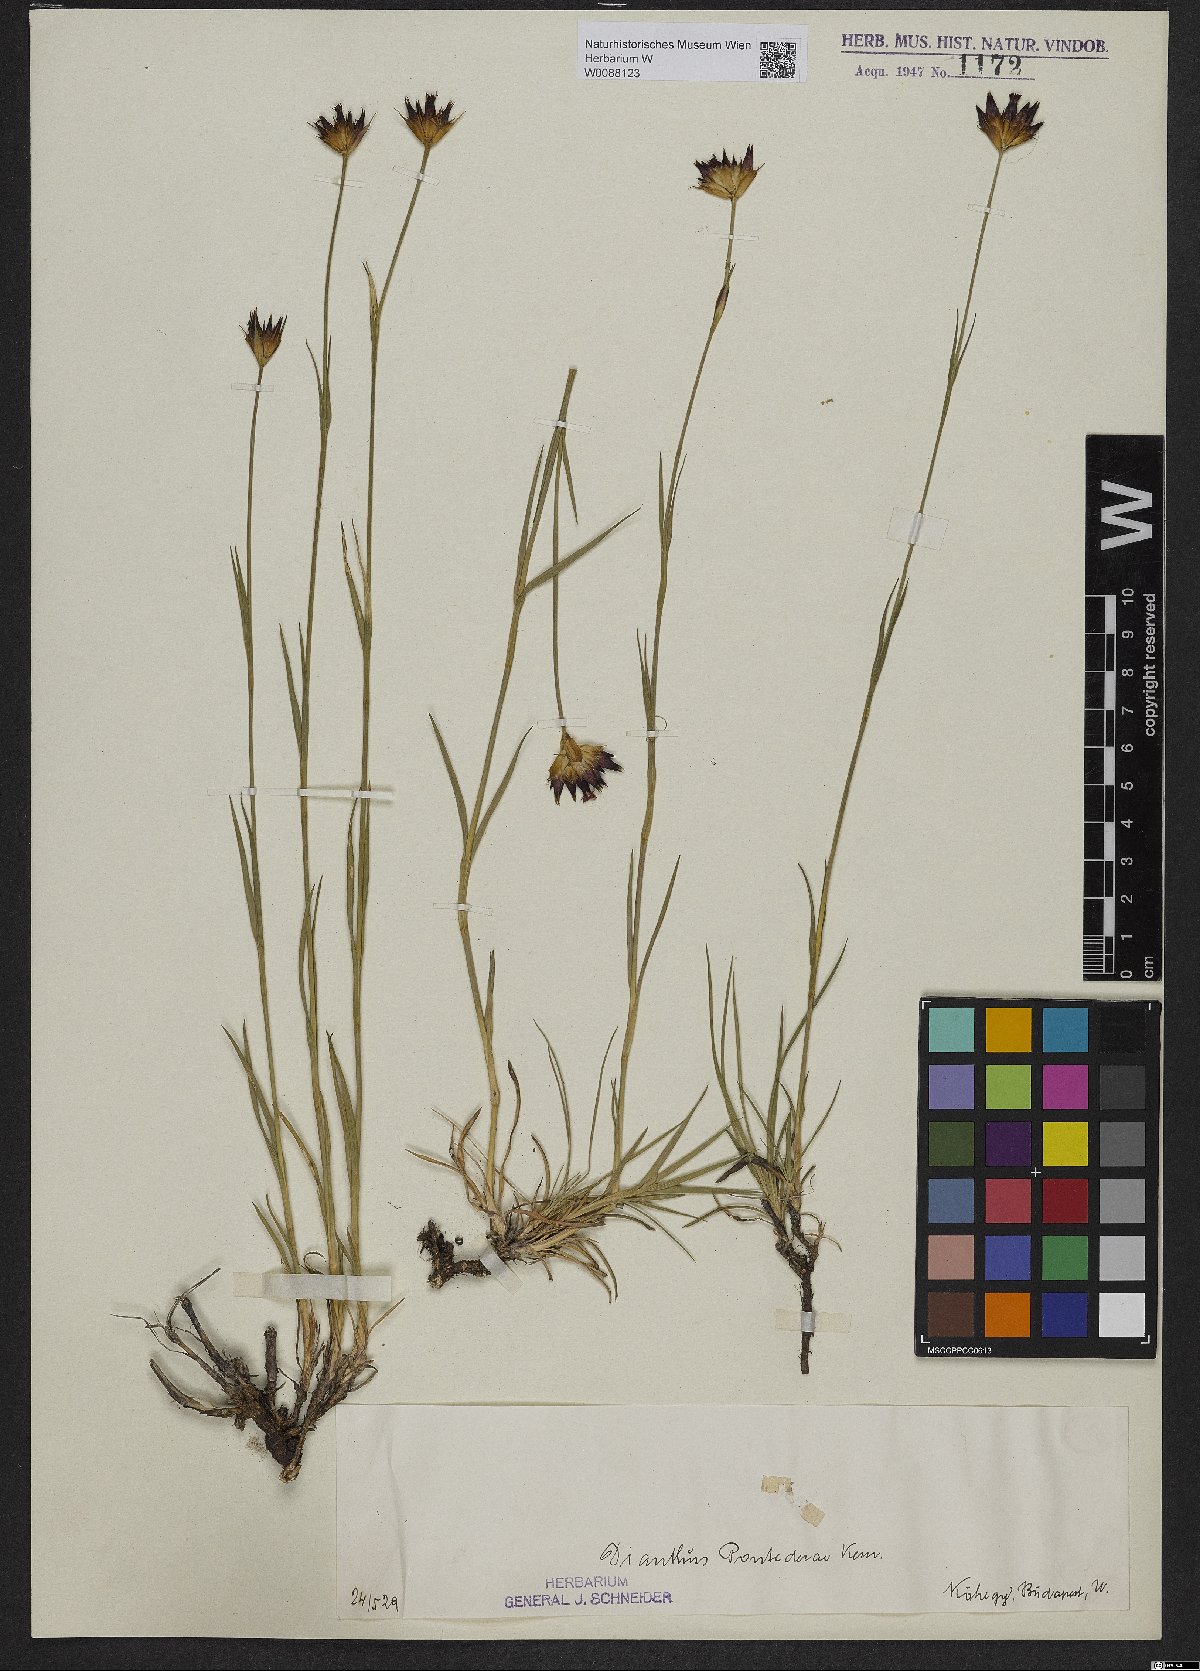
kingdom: Plantae
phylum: Tracheophyta
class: Magnoliopsida
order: Caryophyllales
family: Caryophyllaceae
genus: Dianthus
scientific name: Dianthus pontederae
